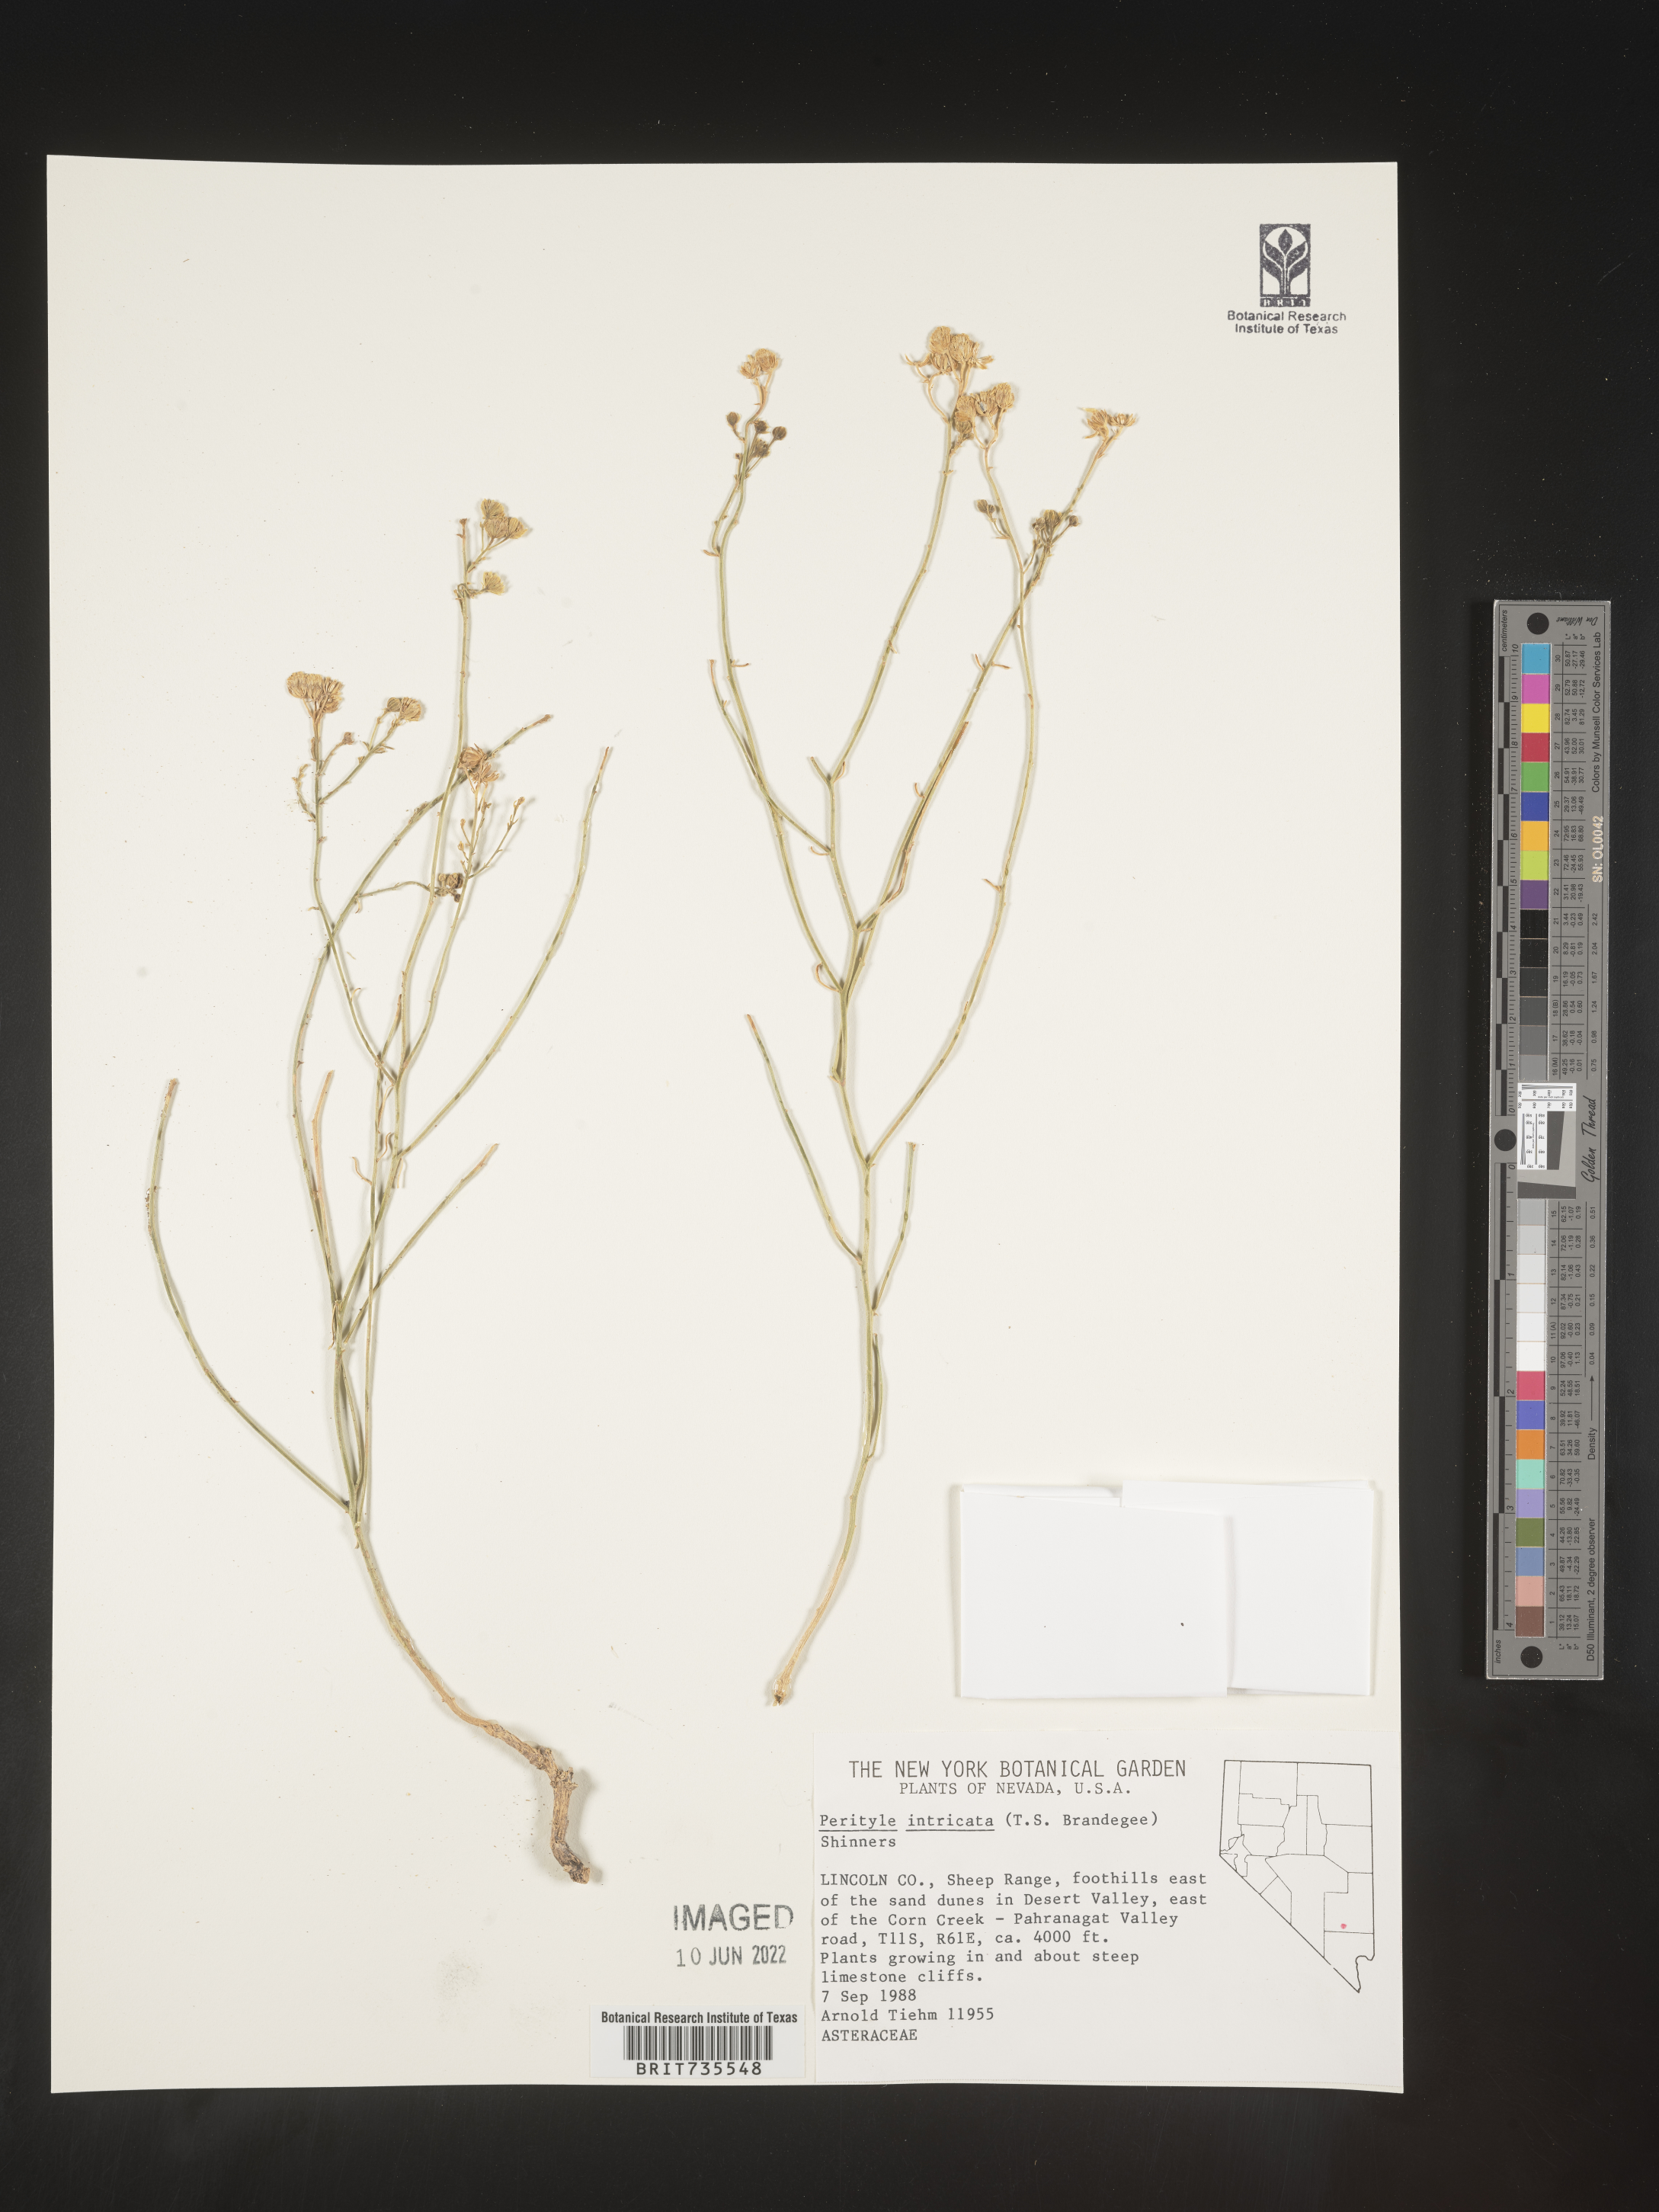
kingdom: Plantae
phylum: Tracheophyta
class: Magnoliopsida
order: Asterales
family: Asteraceae
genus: Perityle
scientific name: Perityle
